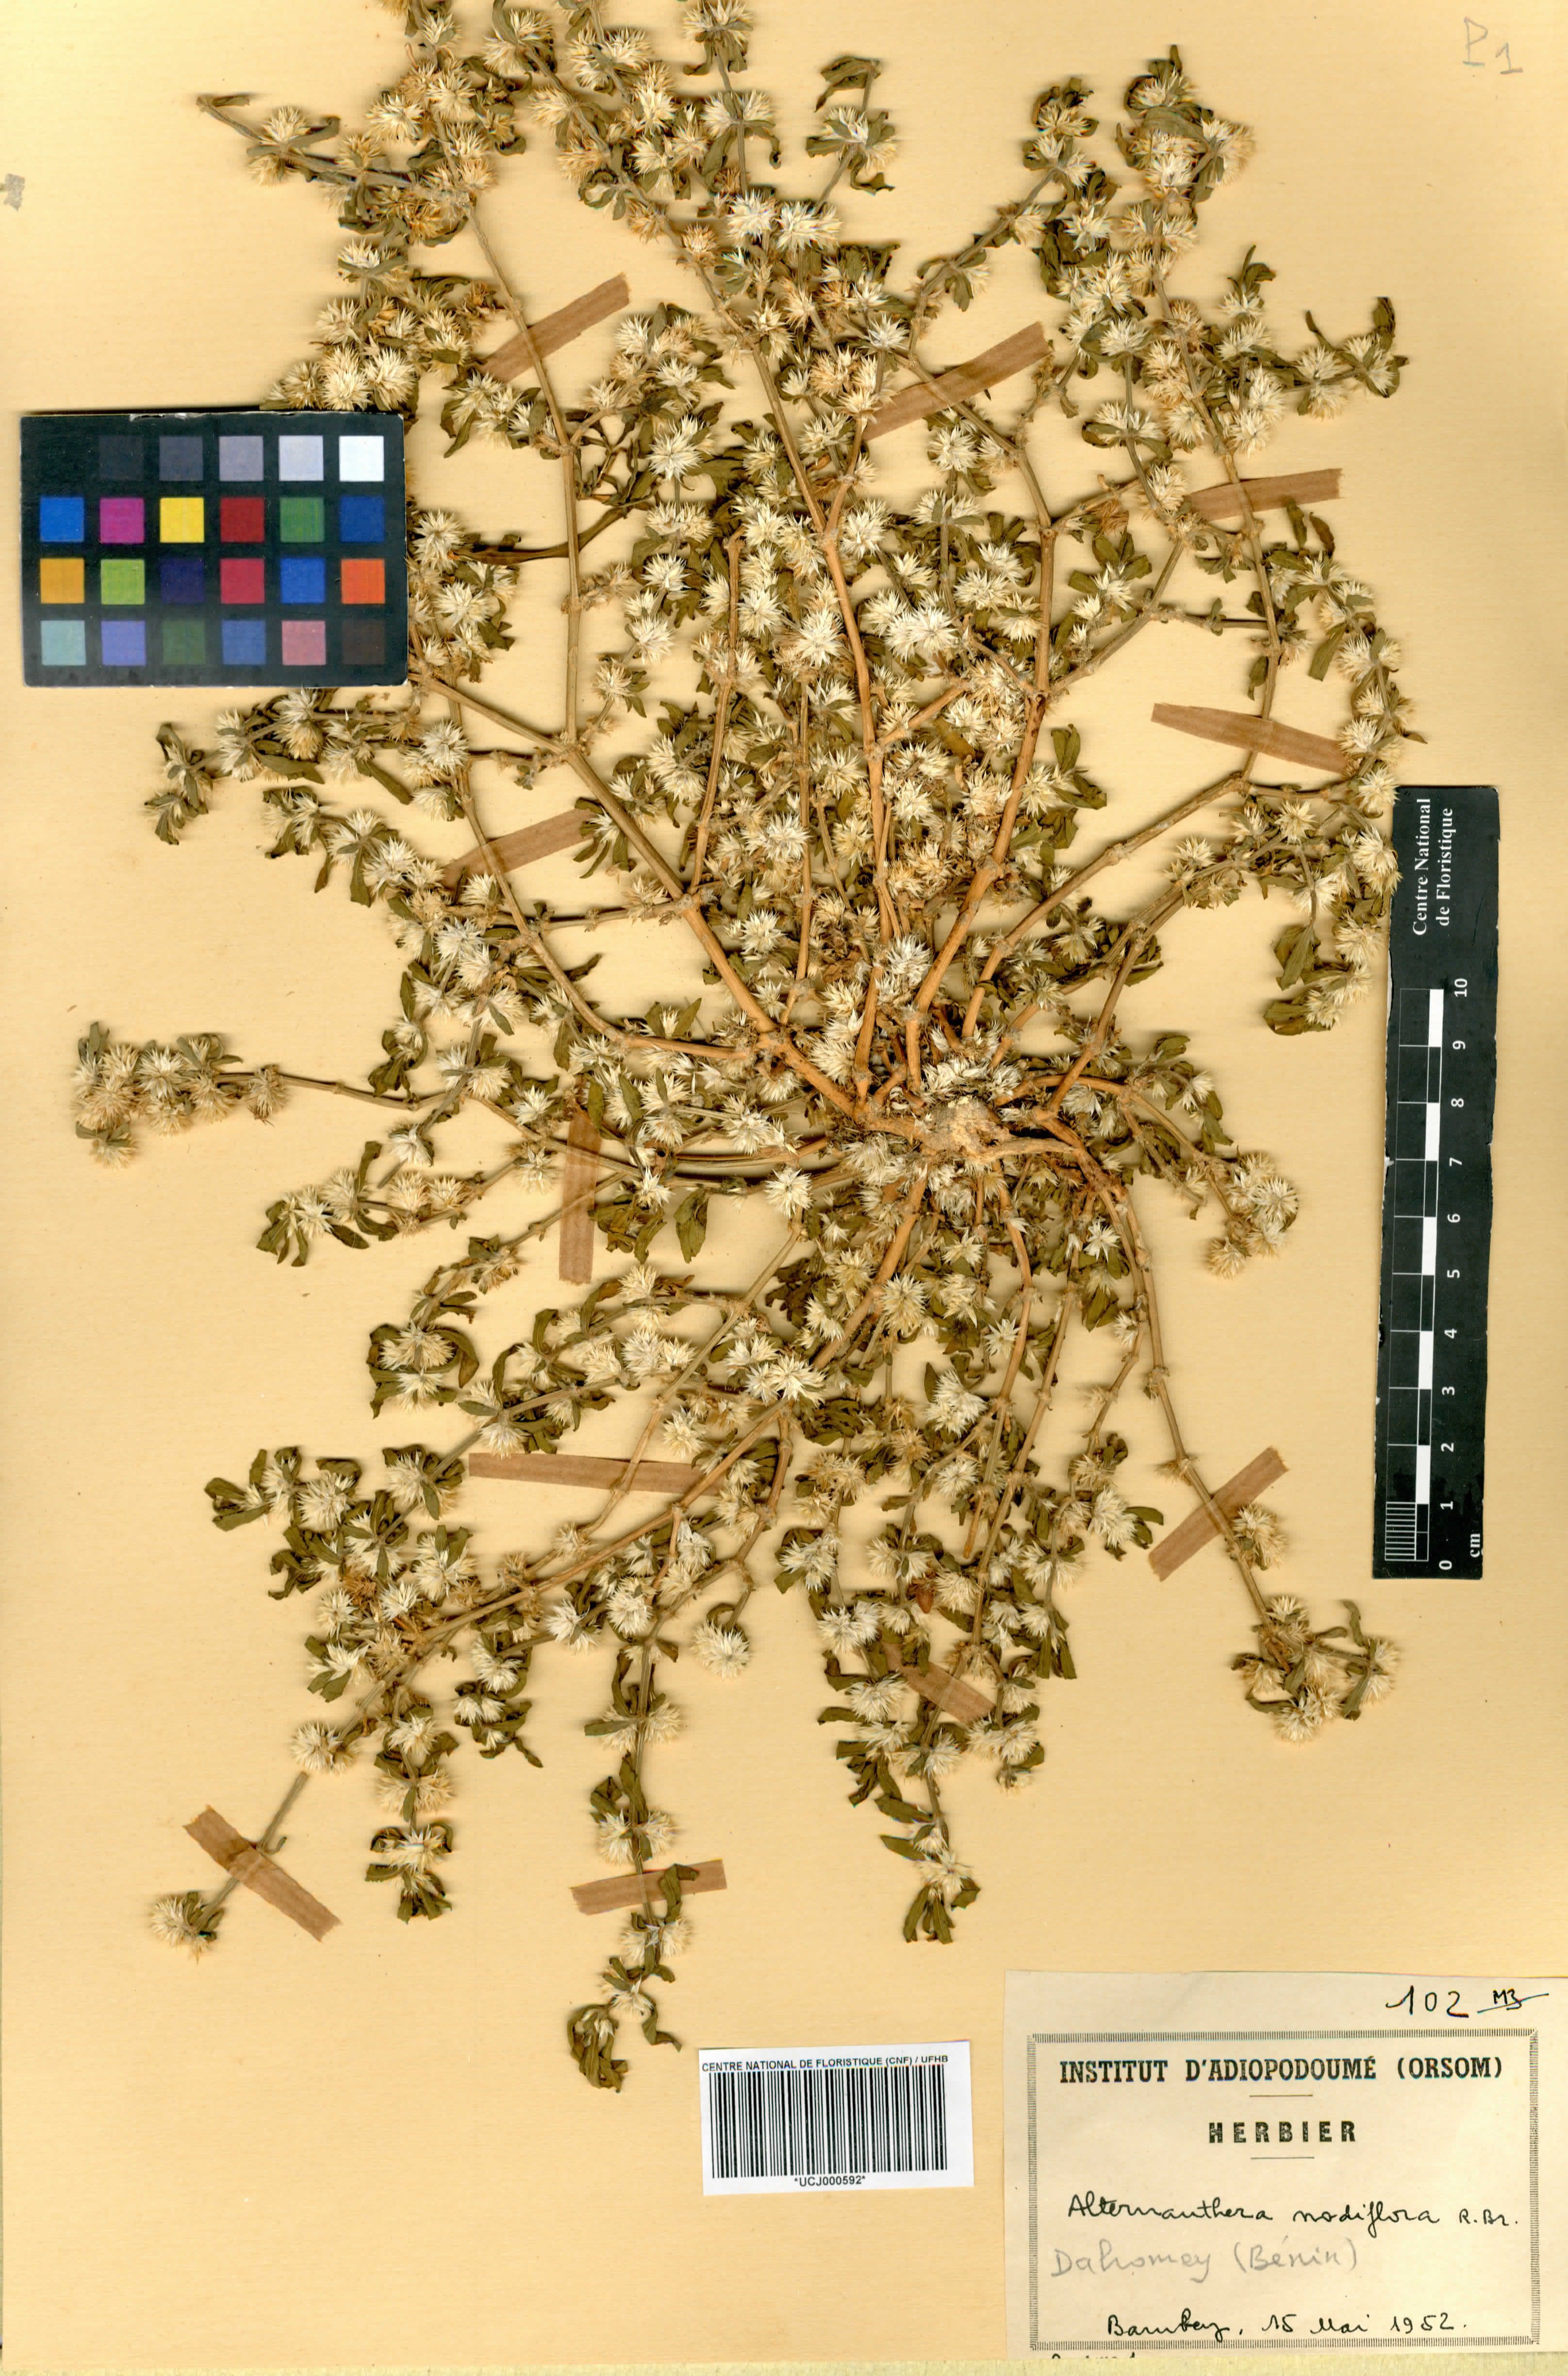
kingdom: Plantae
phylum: Tracheophyta
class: Magnoliopsida
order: Caryophyllales
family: Amaranthaceae
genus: Alternanthera
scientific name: Alternanthera sessilis
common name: Sessile joyweed
